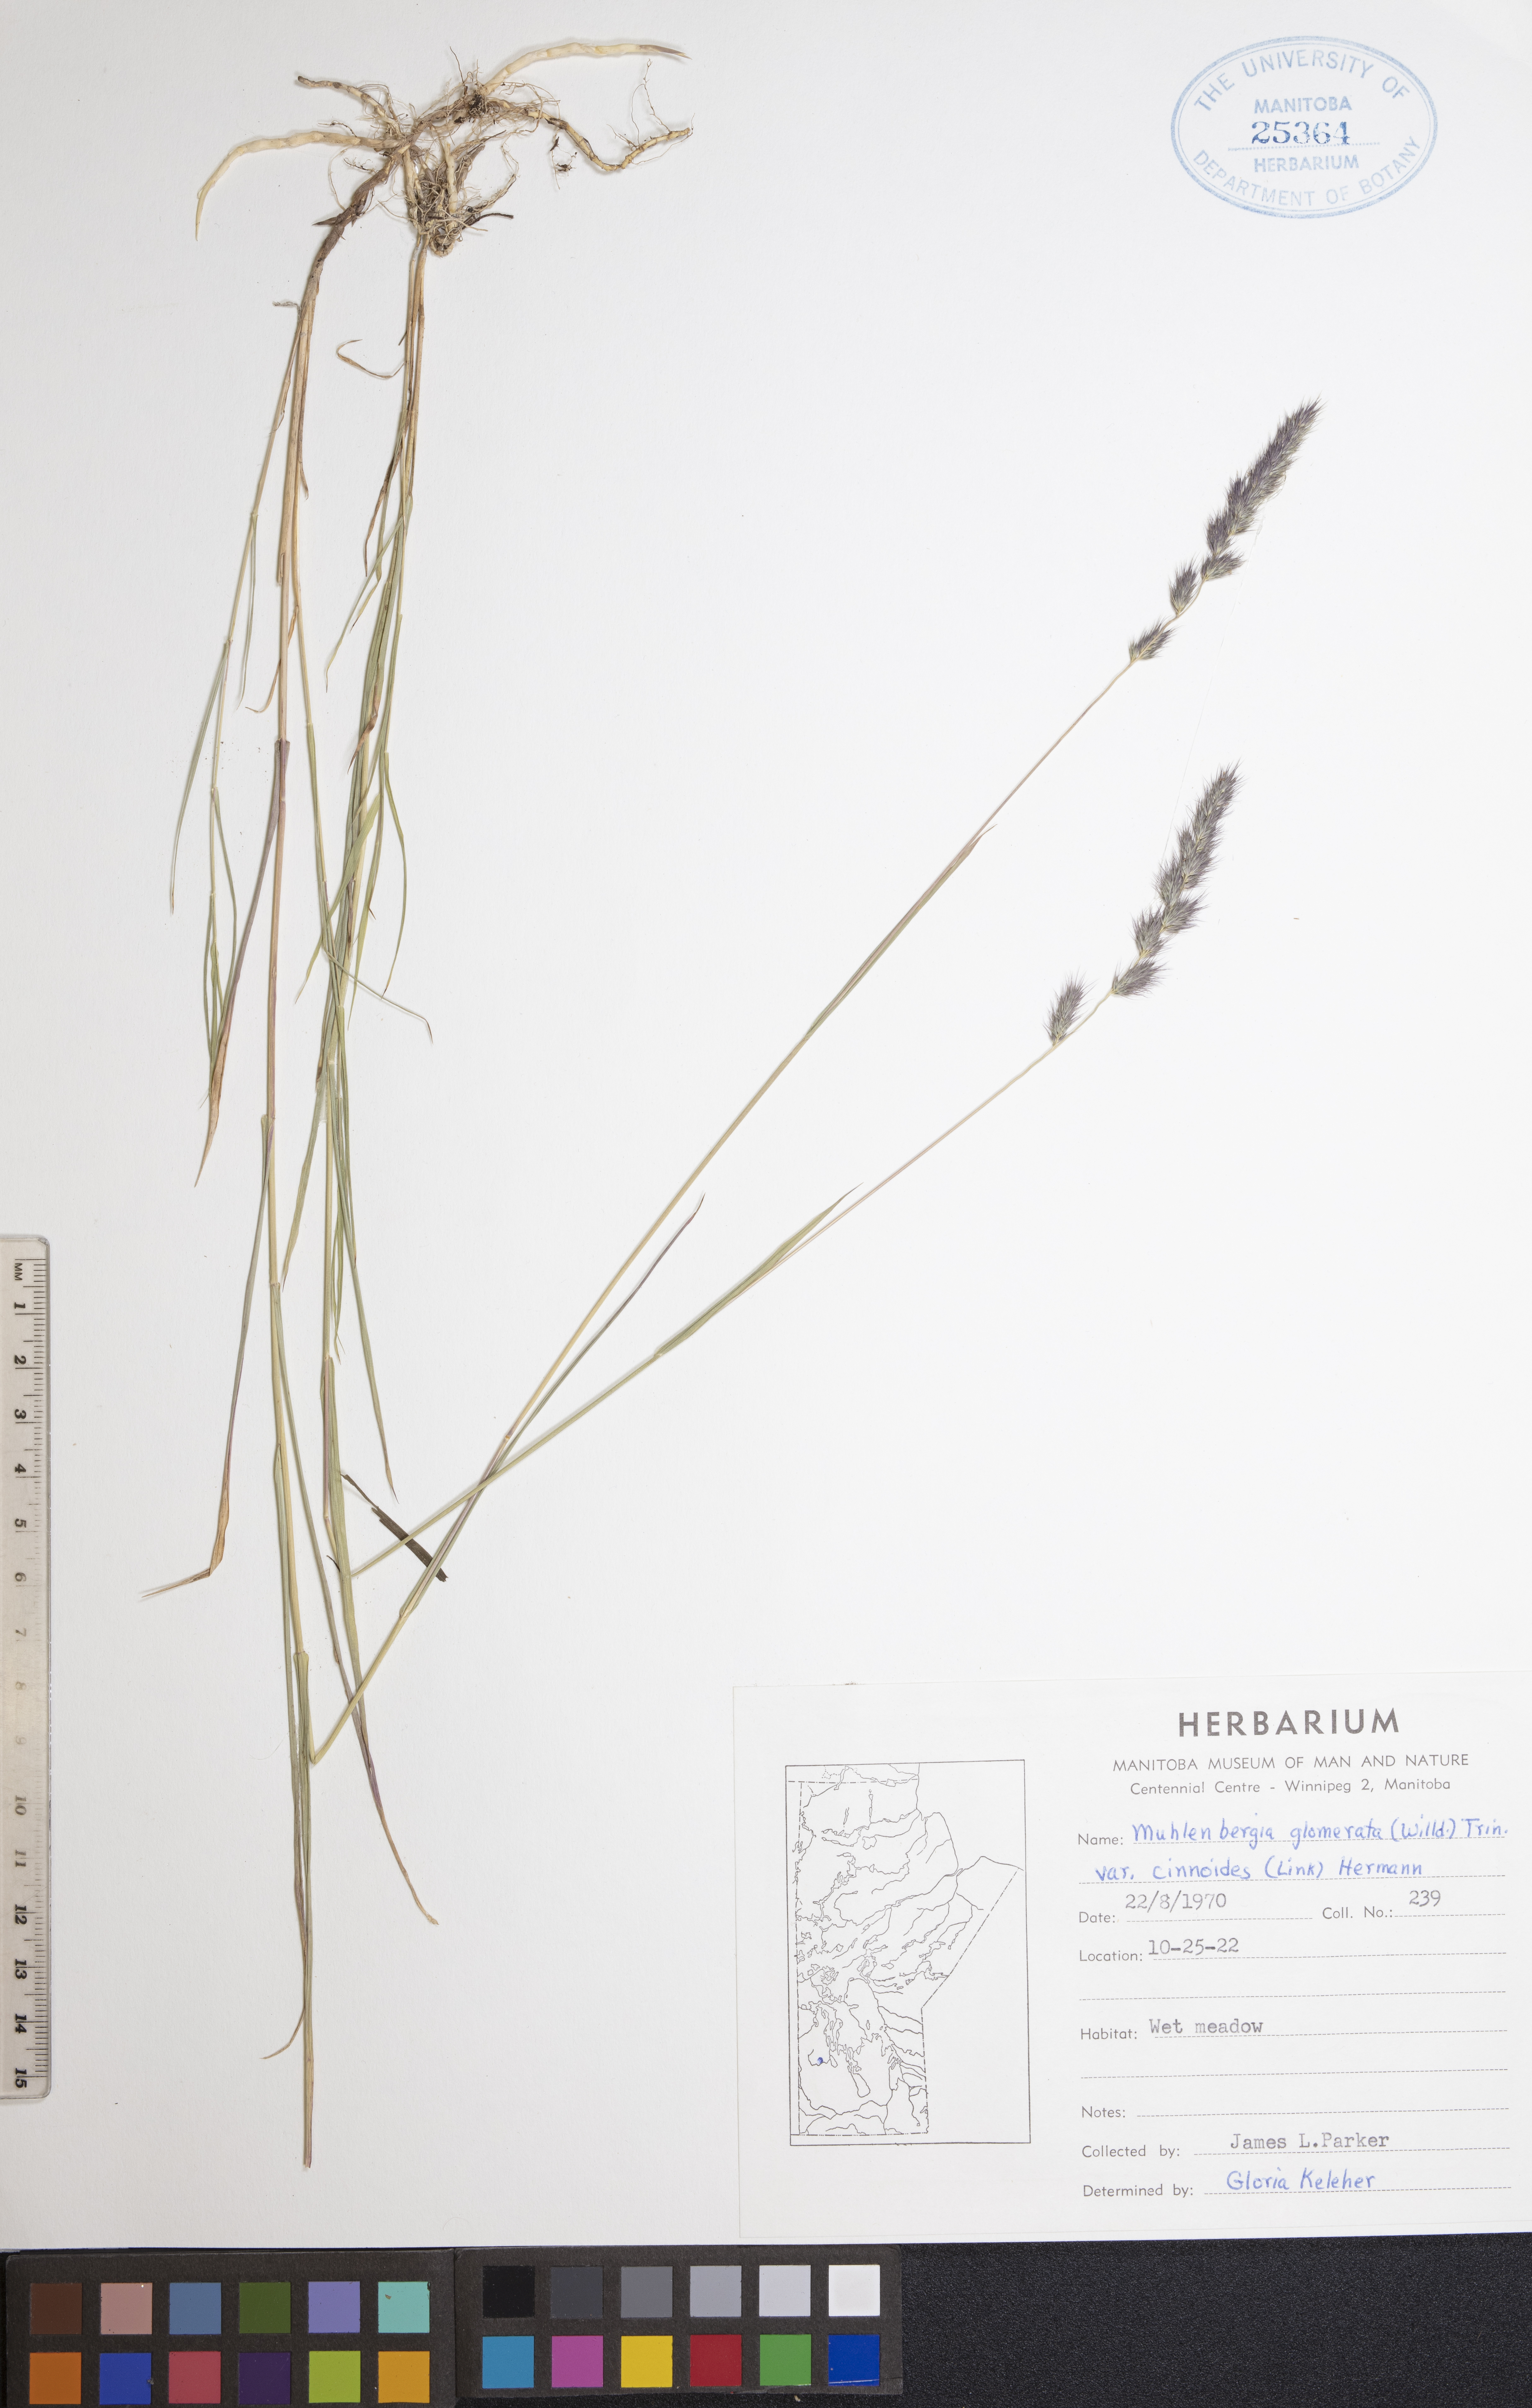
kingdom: Plantae
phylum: Tracheophyta
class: Liliopsida
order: Poales
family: Poaceae
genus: Muhlenbergia
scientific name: Muhlenbergia glomerata
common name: Bog muhly
